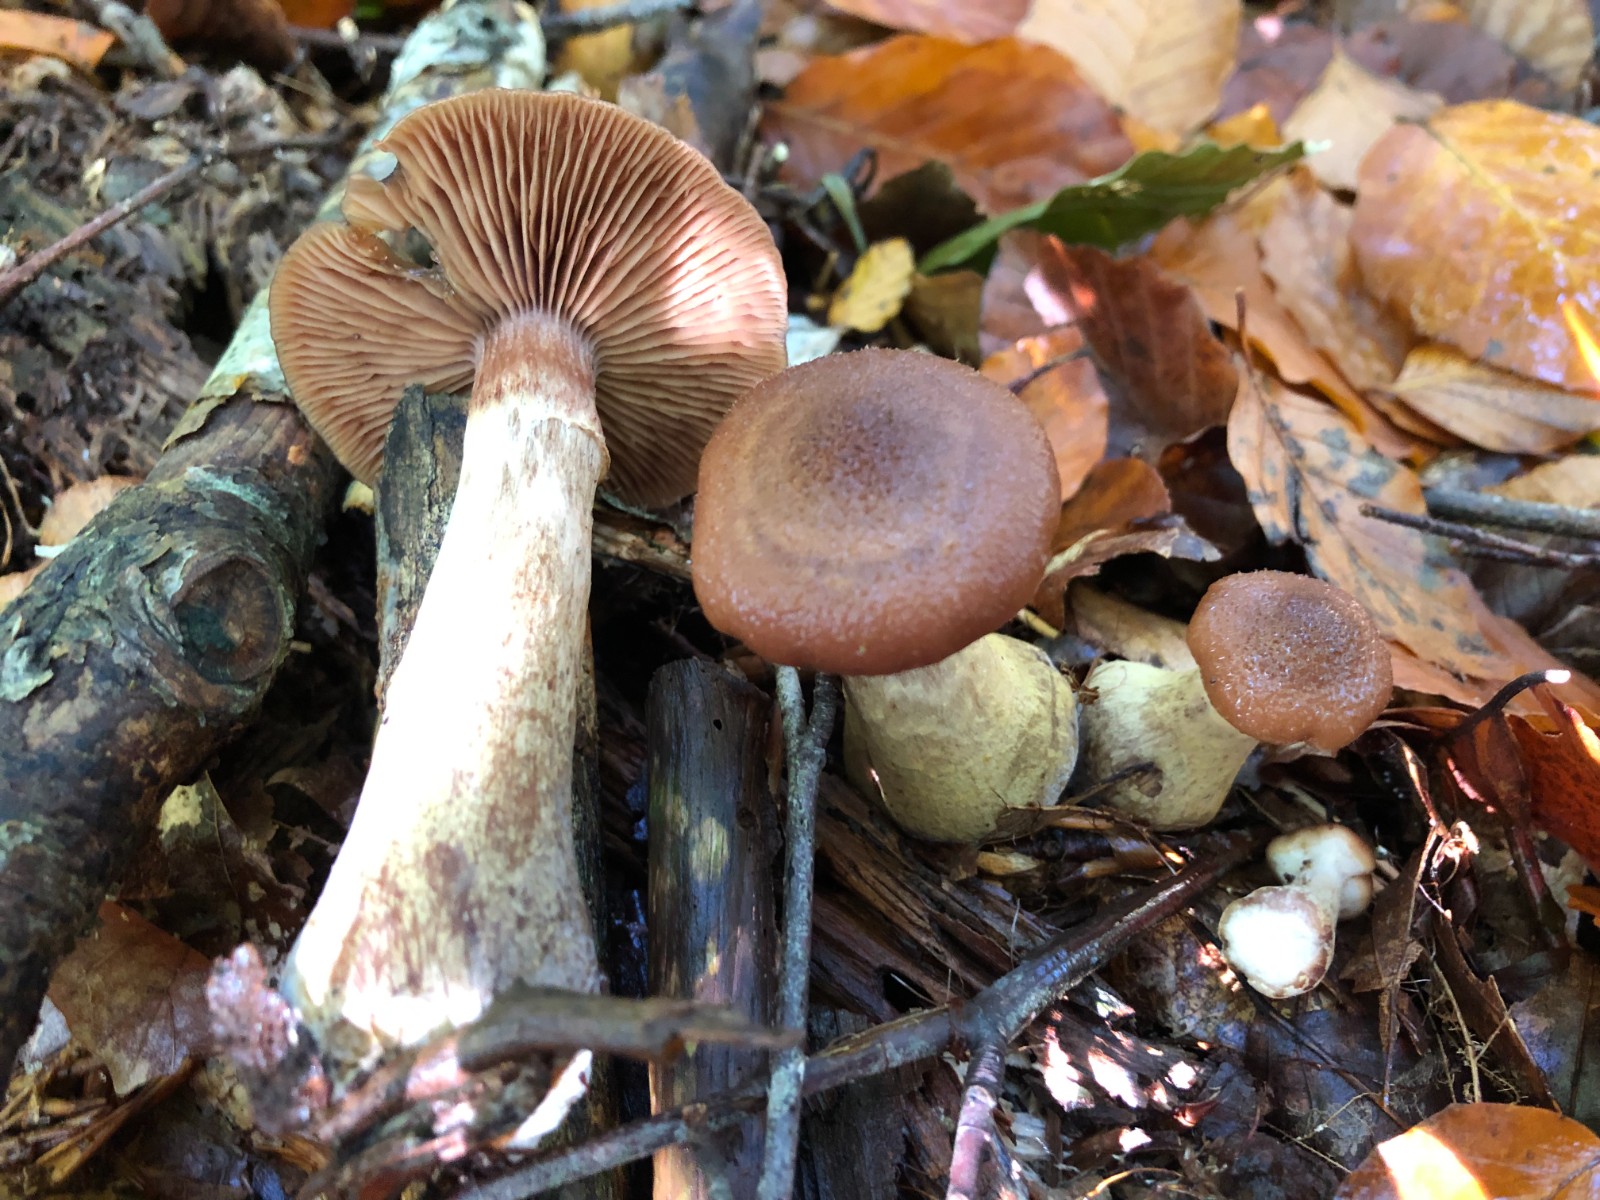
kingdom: Fungi
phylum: Basidiomycota
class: Agaricomycetes
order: Agaricales
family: Physalacriaceae
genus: Armillaria
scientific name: Armillaria lutea
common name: køllestokket honningsvamp
